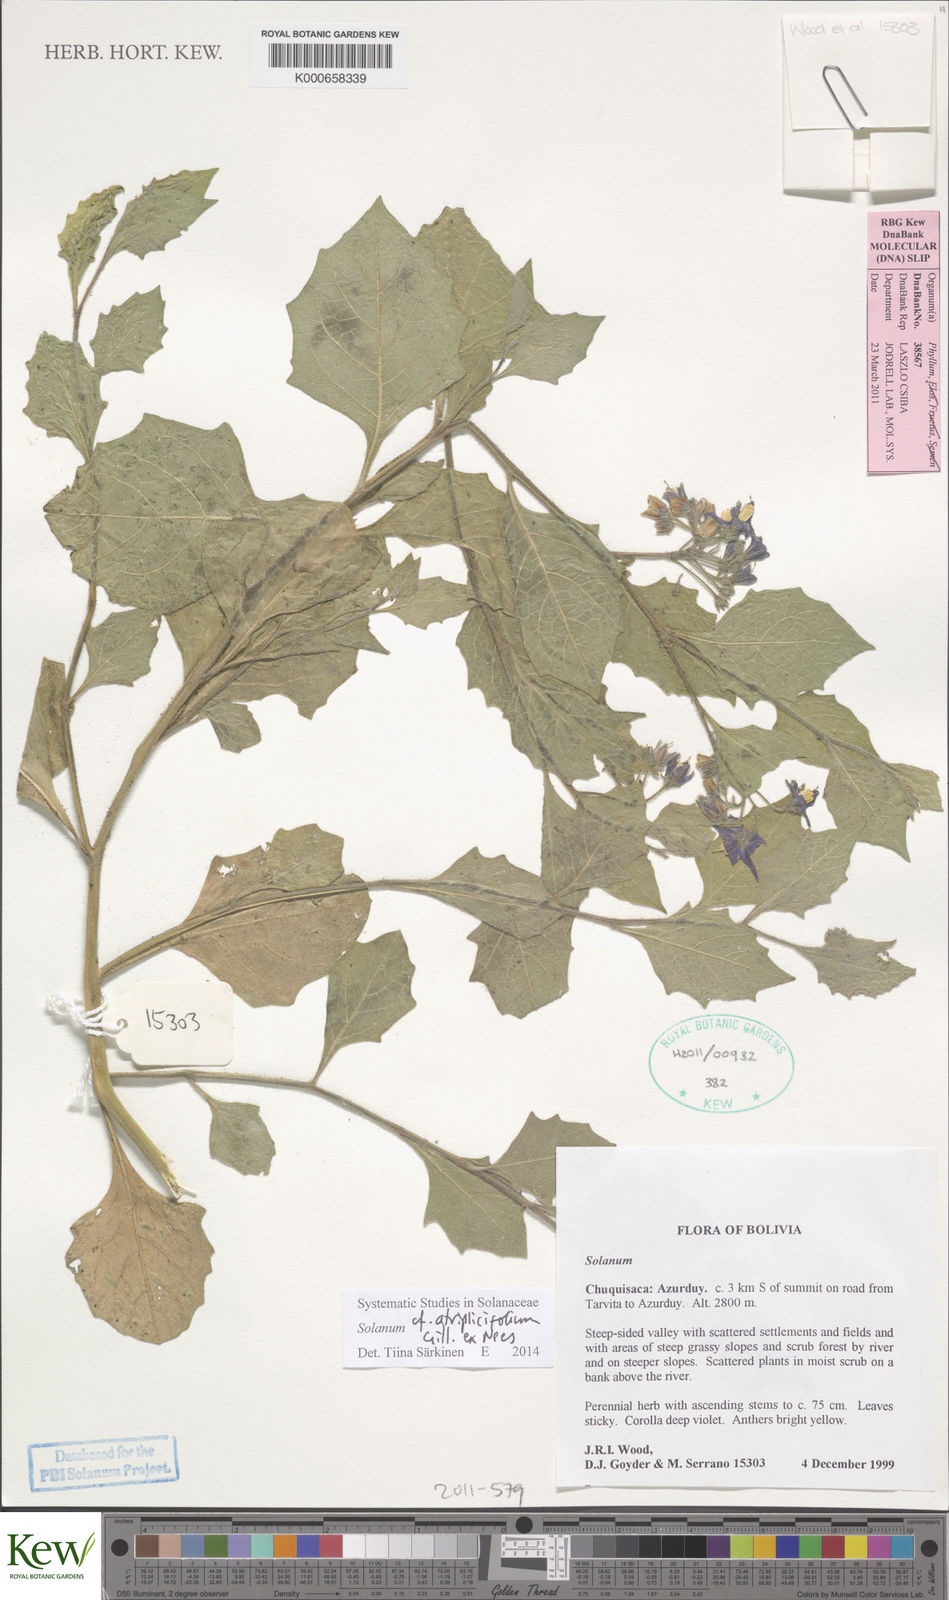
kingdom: Plantae
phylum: Tracheophyta
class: Magnoliopsida
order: Solanales
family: Solanaceae
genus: Solanum
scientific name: Solanum tweedianum
